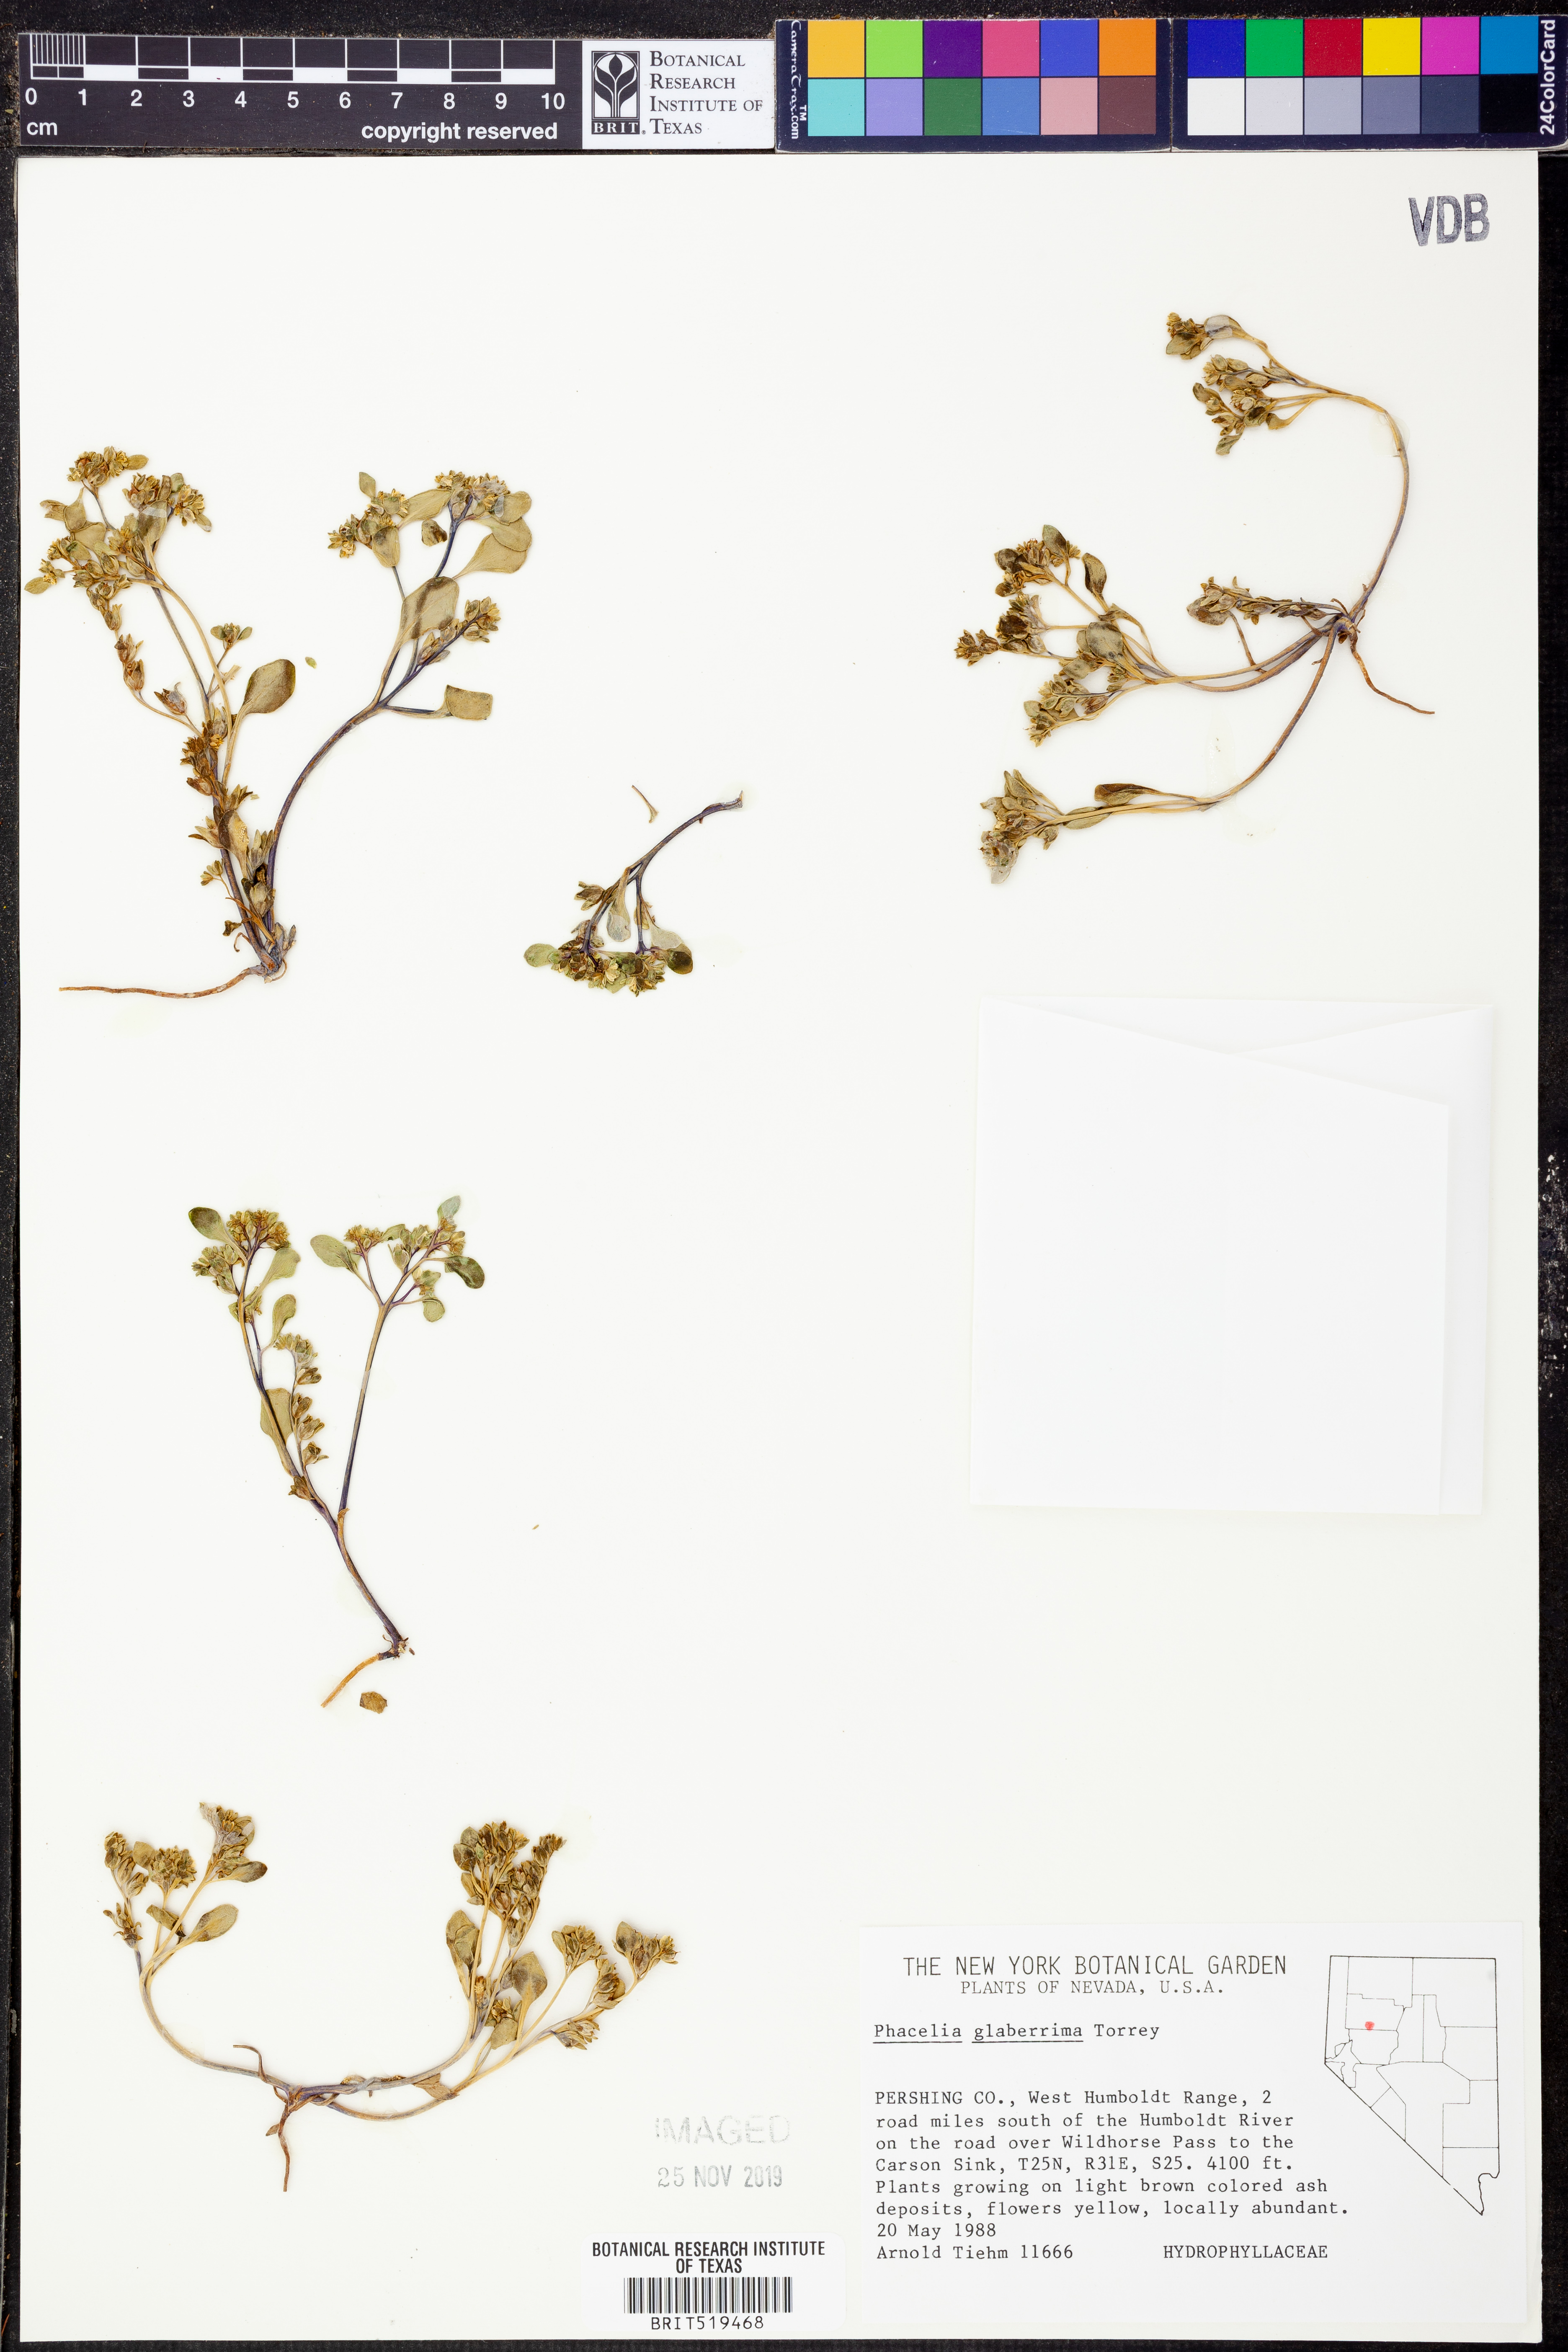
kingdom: Plantae
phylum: Tracheophyta
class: Magnoliopsida
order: Boraginales
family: Hydrophyllaceae
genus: Phacelia
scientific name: Phacelia glaberrima
